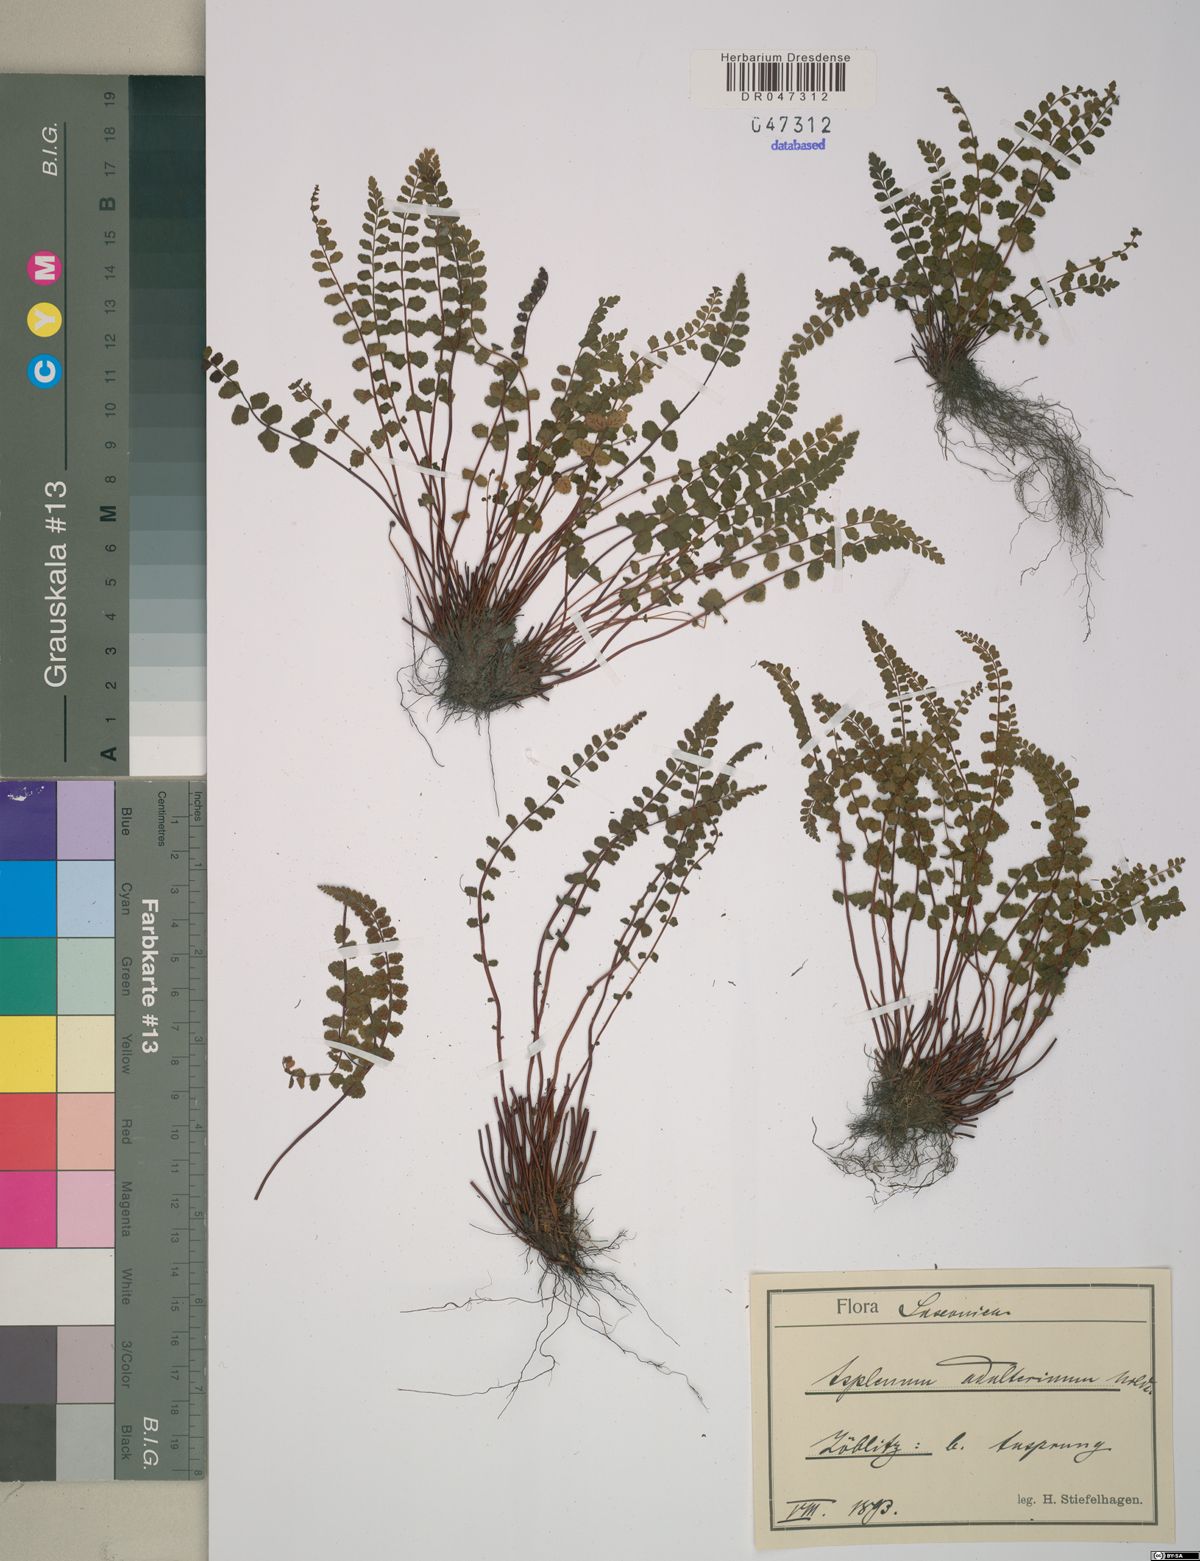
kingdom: Plantae
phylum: Tracheophyta
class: Polypodiopsida
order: Polypodiales
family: Aspleniaceae
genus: Asplenium
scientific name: Asplenium adulterinum
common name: Adulterated spleenwort
